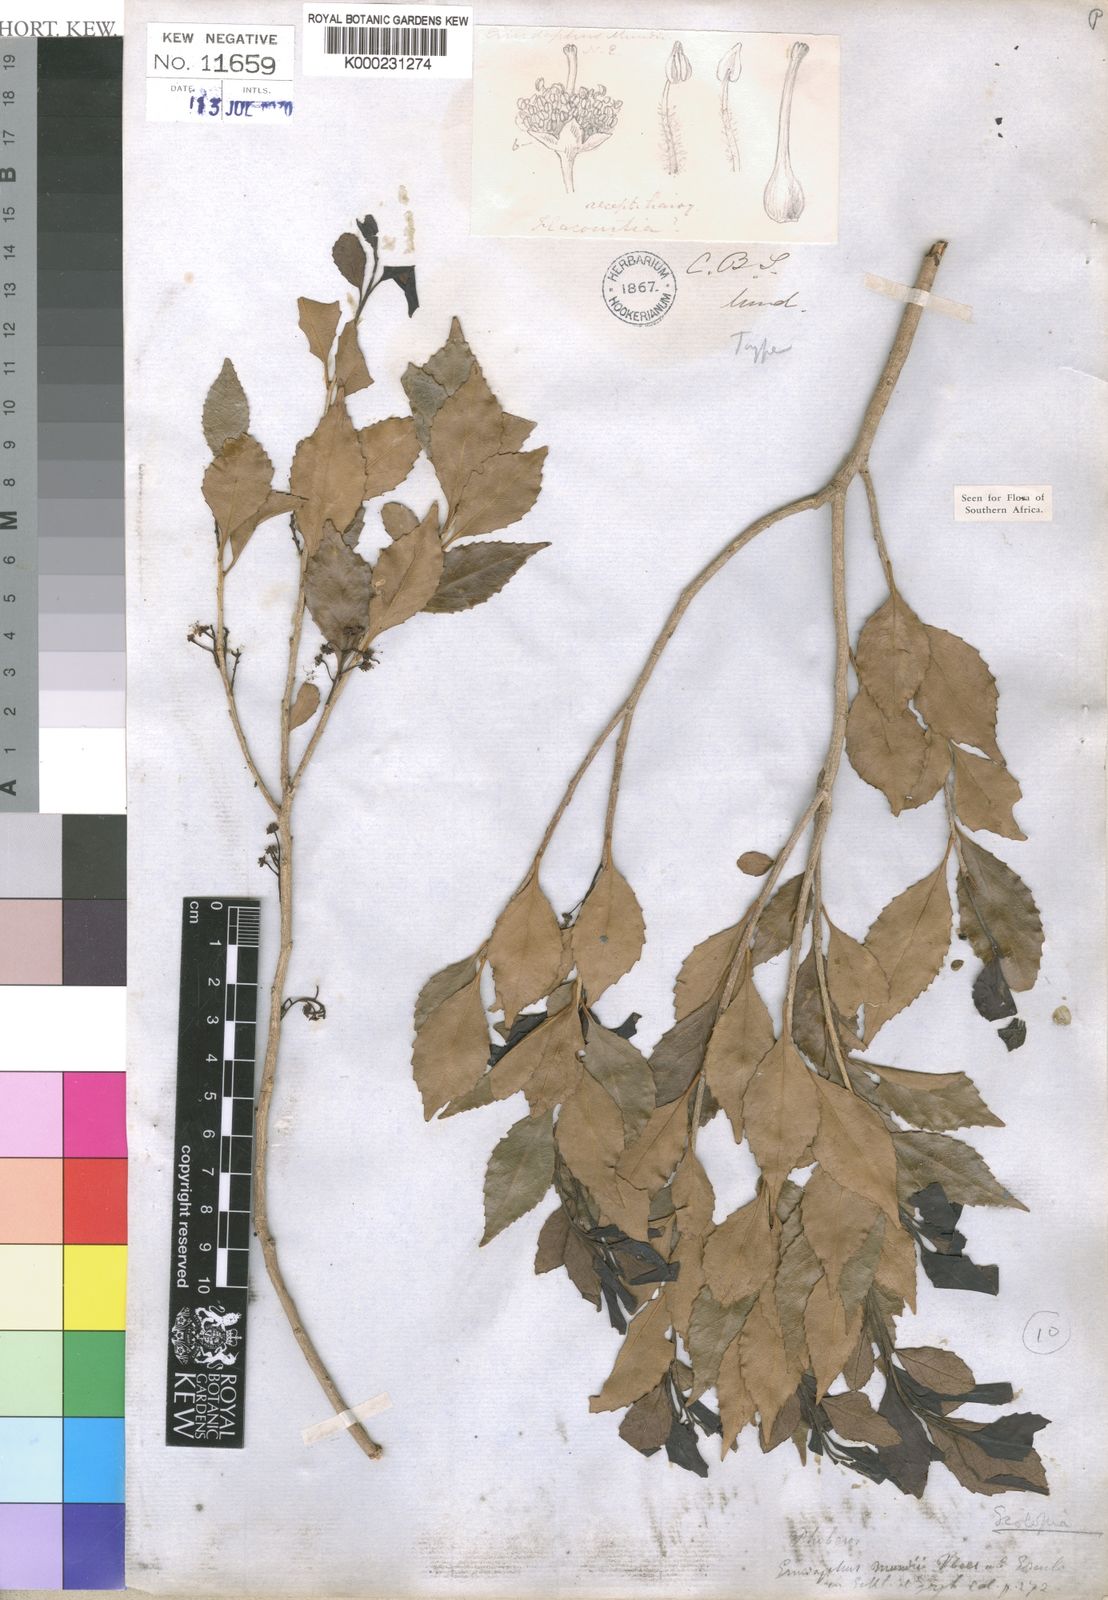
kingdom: Plantae
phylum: Tracheophyta
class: Magnoliopsida
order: Malpighiales
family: Salicaceae
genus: Scolopia
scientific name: Scolopia mundii
